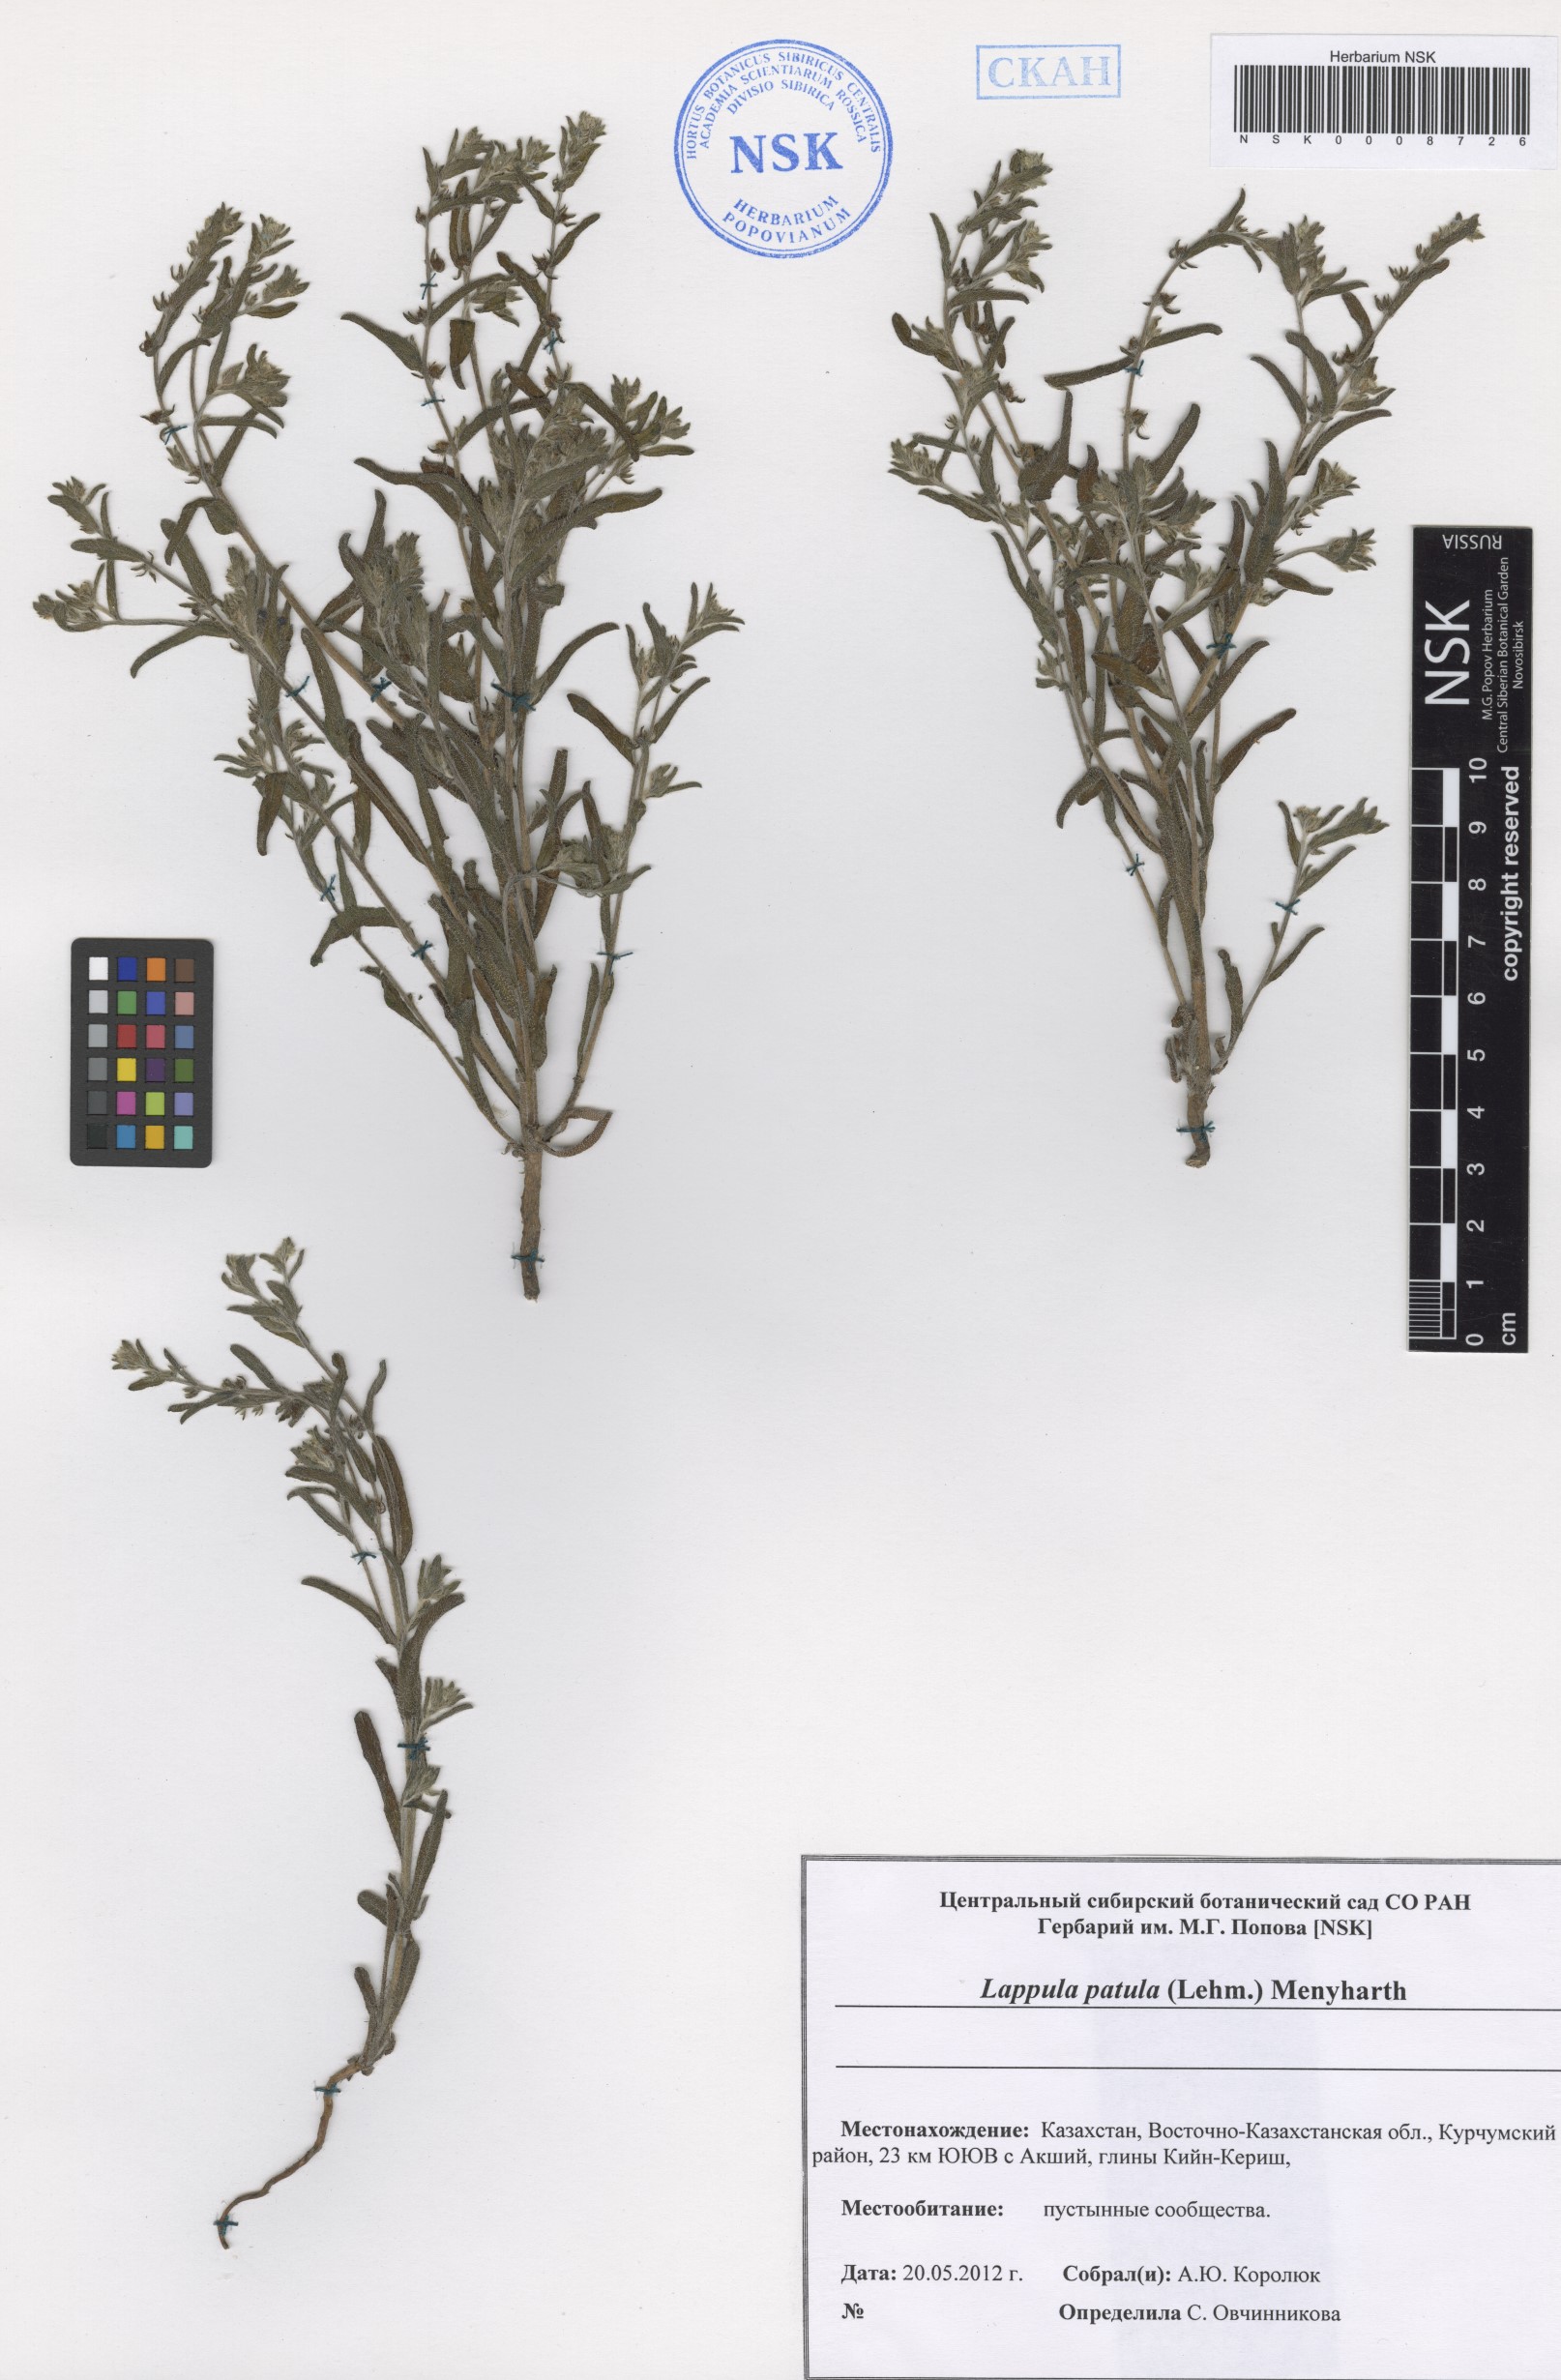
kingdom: Plantae
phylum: Tracheophyta
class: Magnoliopsida
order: Boraginales
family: Boraginaceae
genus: Lappula
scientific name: Lappula patula
